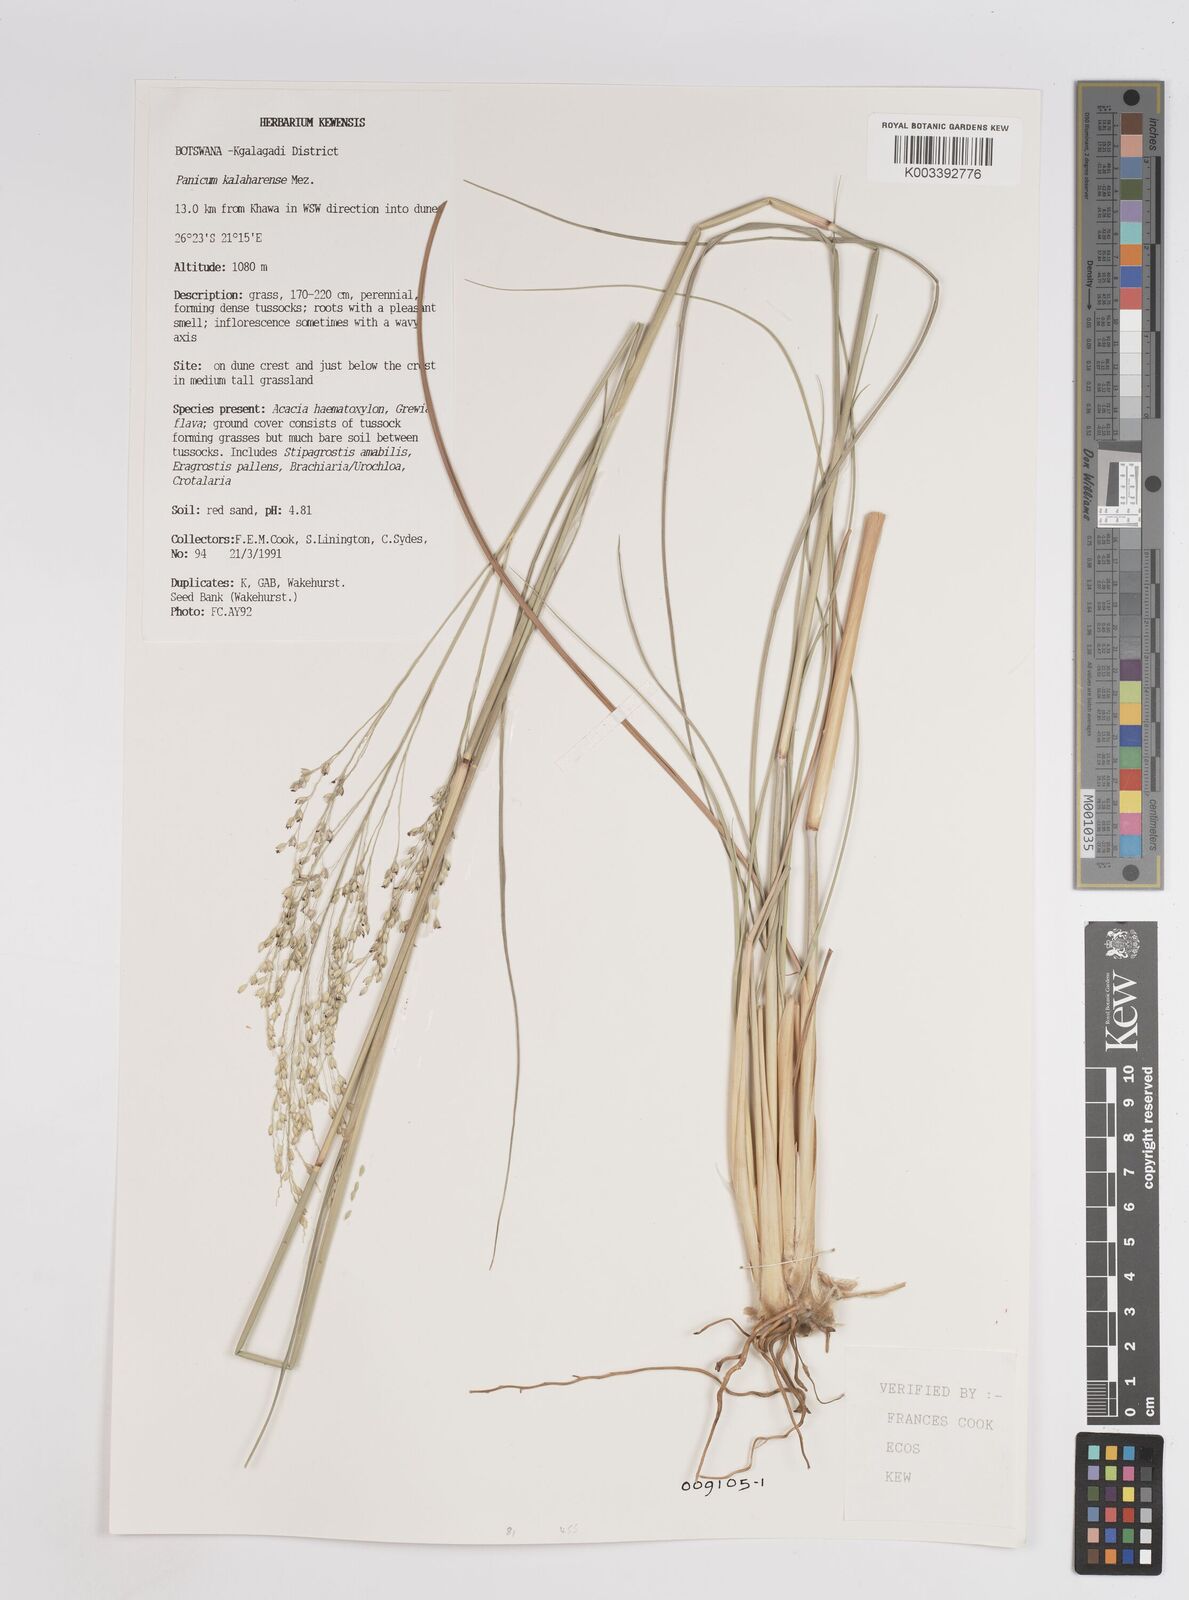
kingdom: Plantae
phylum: Tracheophyta
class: Liliopsida
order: Poales
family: Poaceae
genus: Panicum
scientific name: Panicum kalaharense
